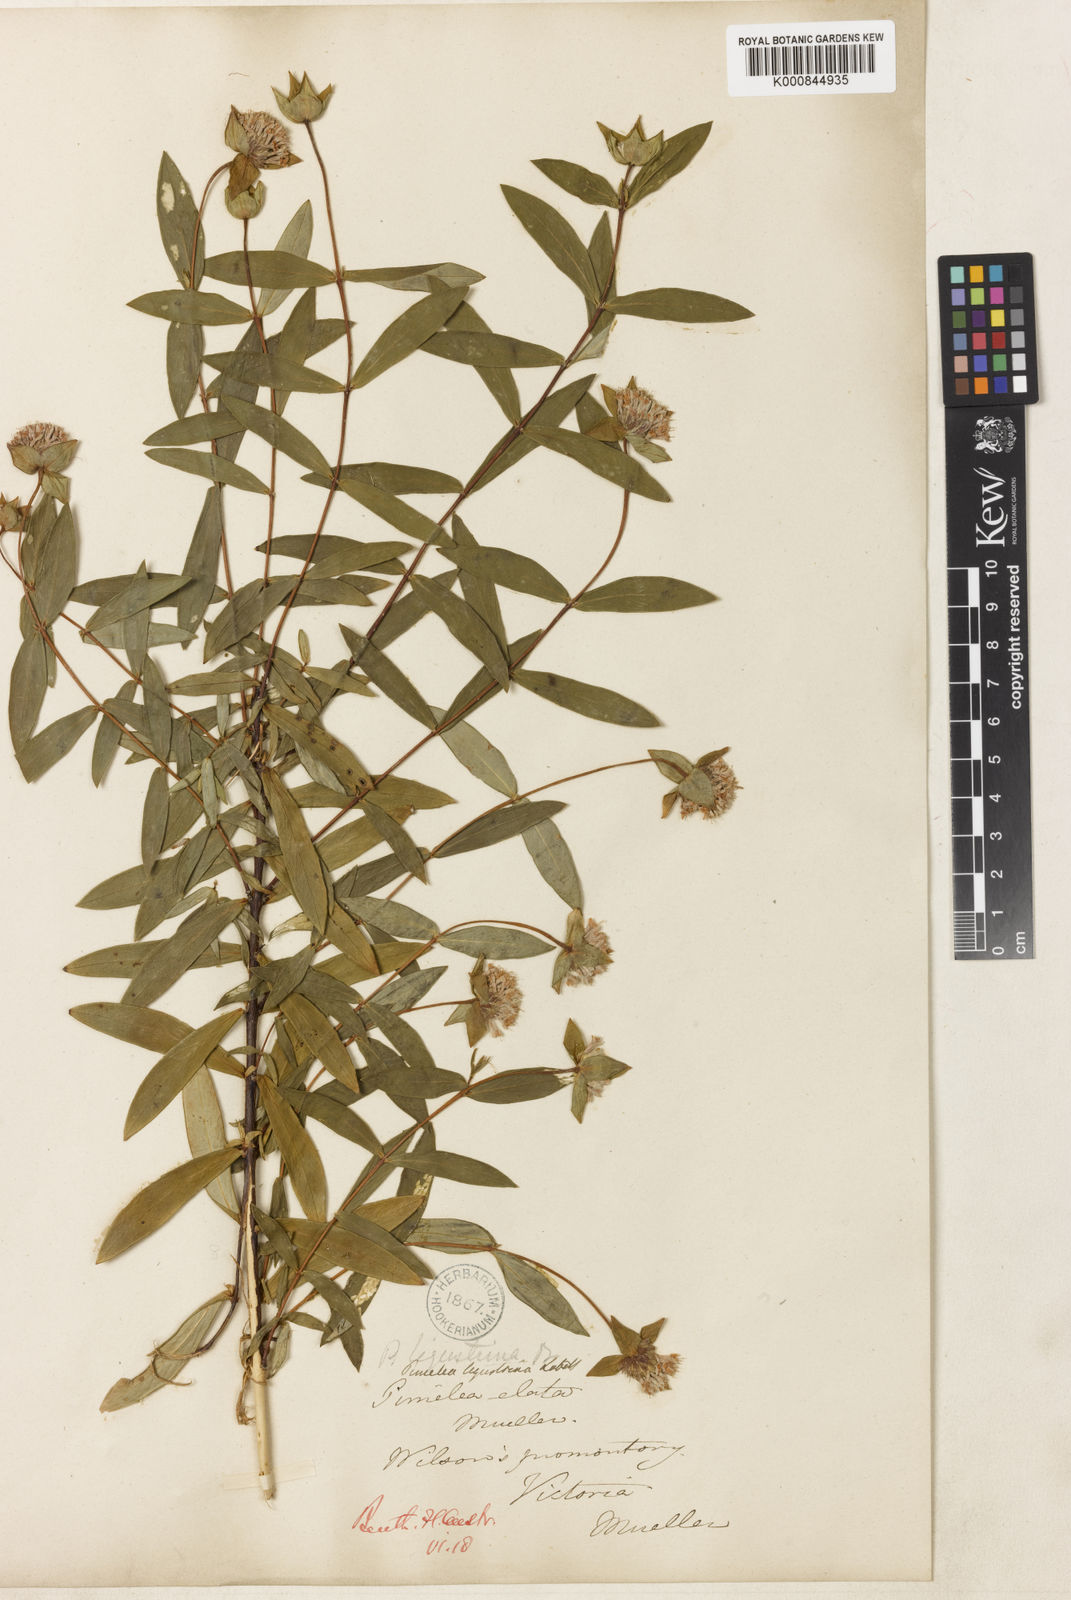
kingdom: Plantae
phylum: Tracheophyta
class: Magnoliopsida
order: Malvales
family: Thymelaeaceae
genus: Pimelea
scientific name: Pimelea ligustrina
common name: Tall riceflower
